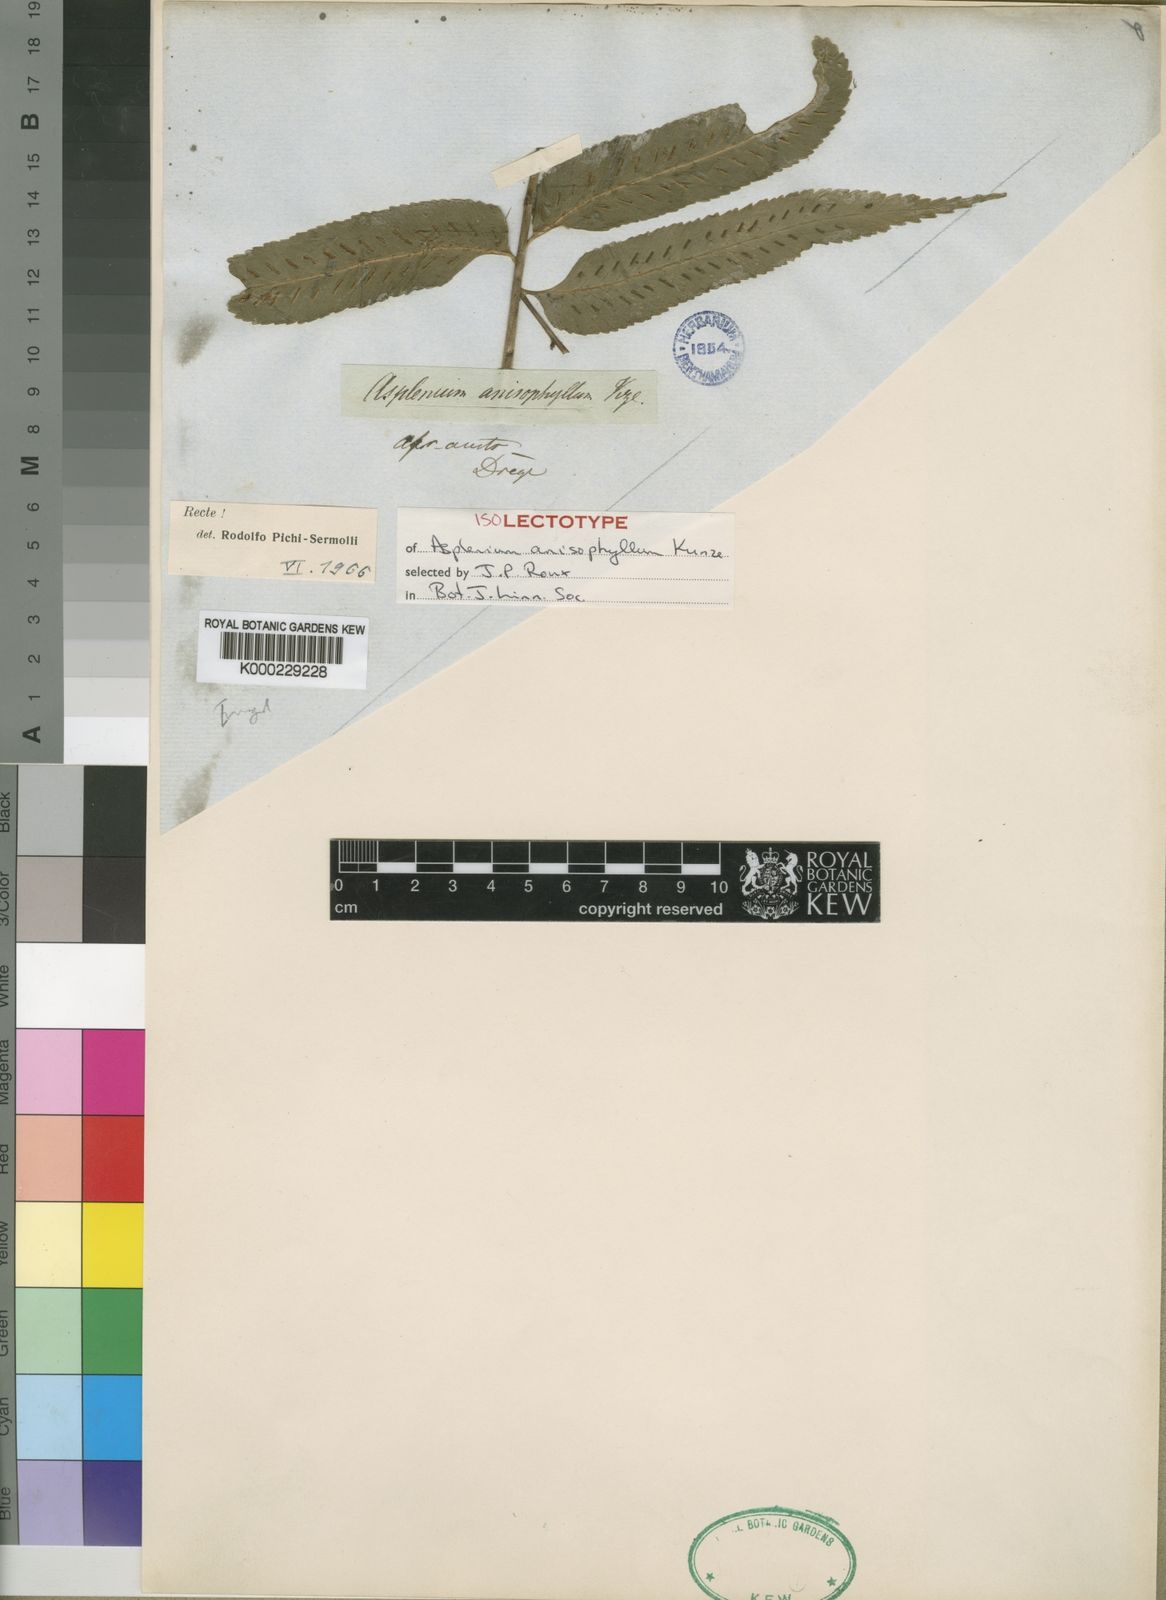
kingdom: Plantae
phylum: Tracheophyta
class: Polypodiopsida
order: Polypodiales
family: Aspleniaceae
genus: Asplenium
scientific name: Asplenium boltonii
